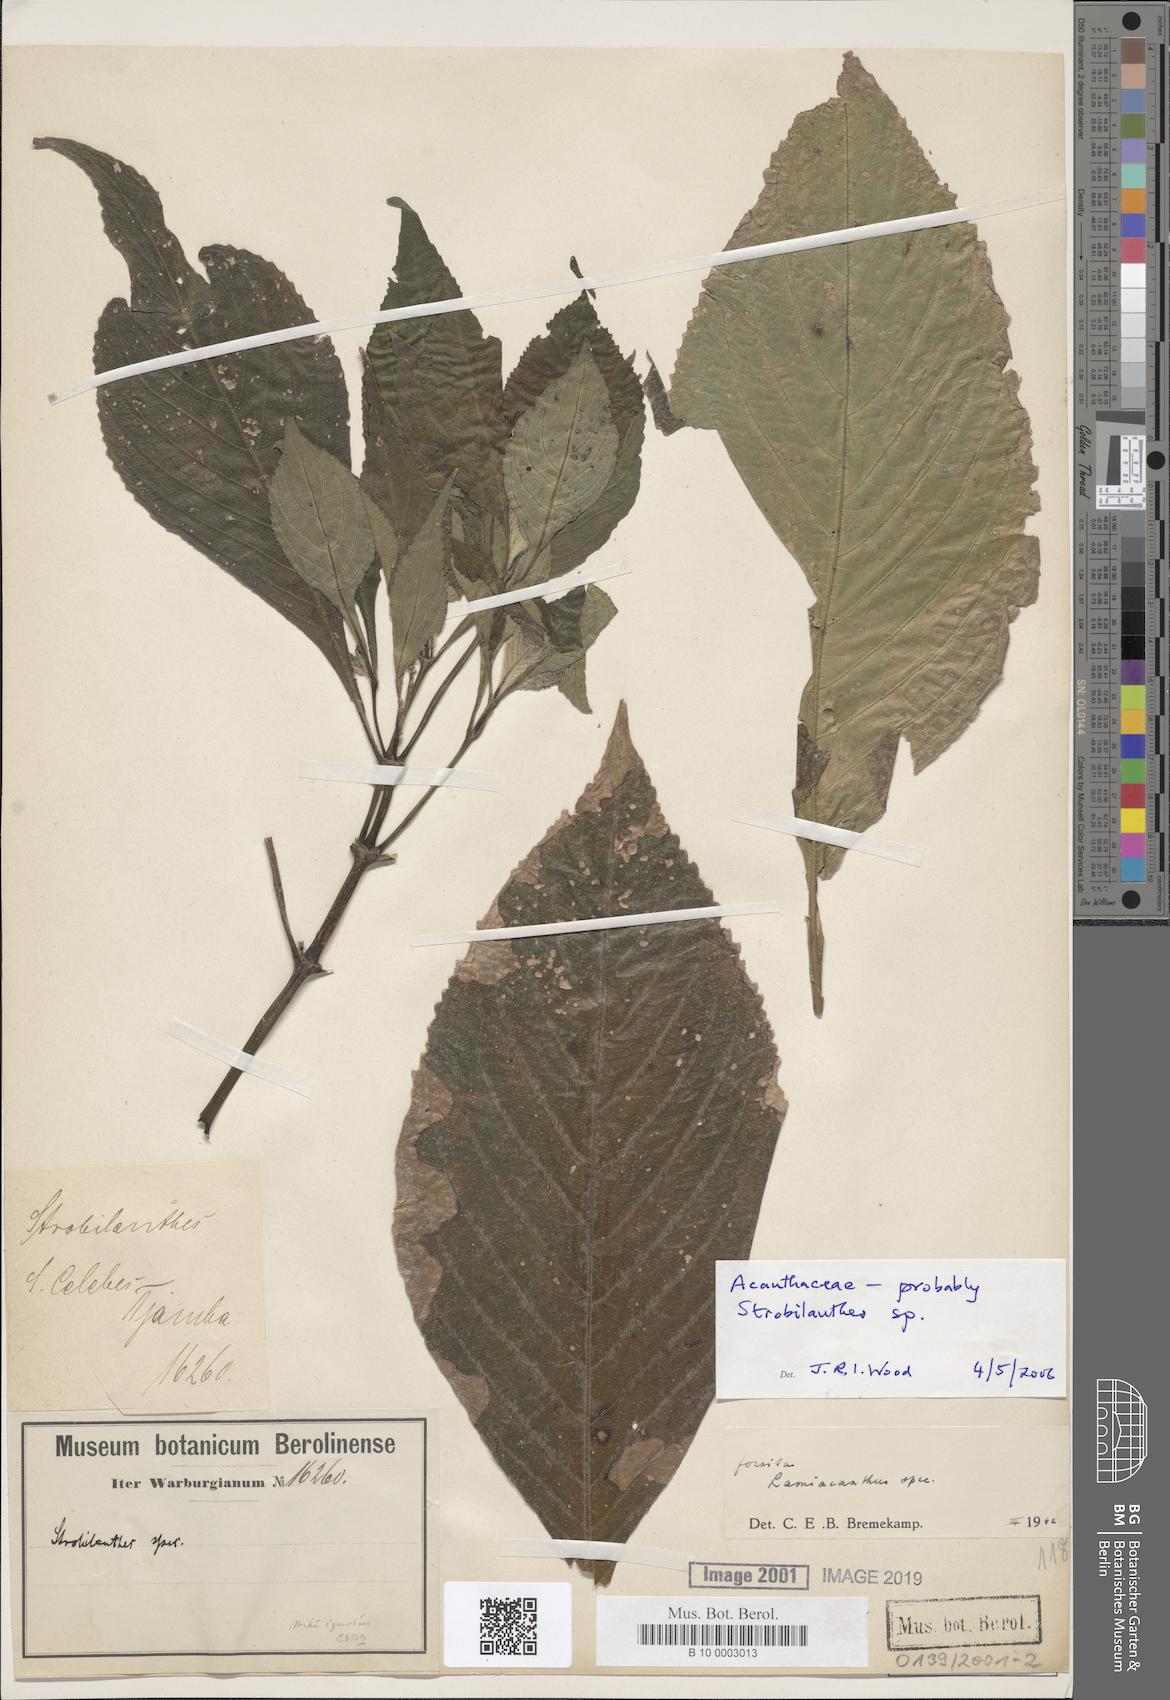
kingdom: Plantae
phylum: Tracheophyta
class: Magnoliopsida
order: Lamiales
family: Acanthaceae
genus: Strobilanthes
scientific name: Strobilanthes
